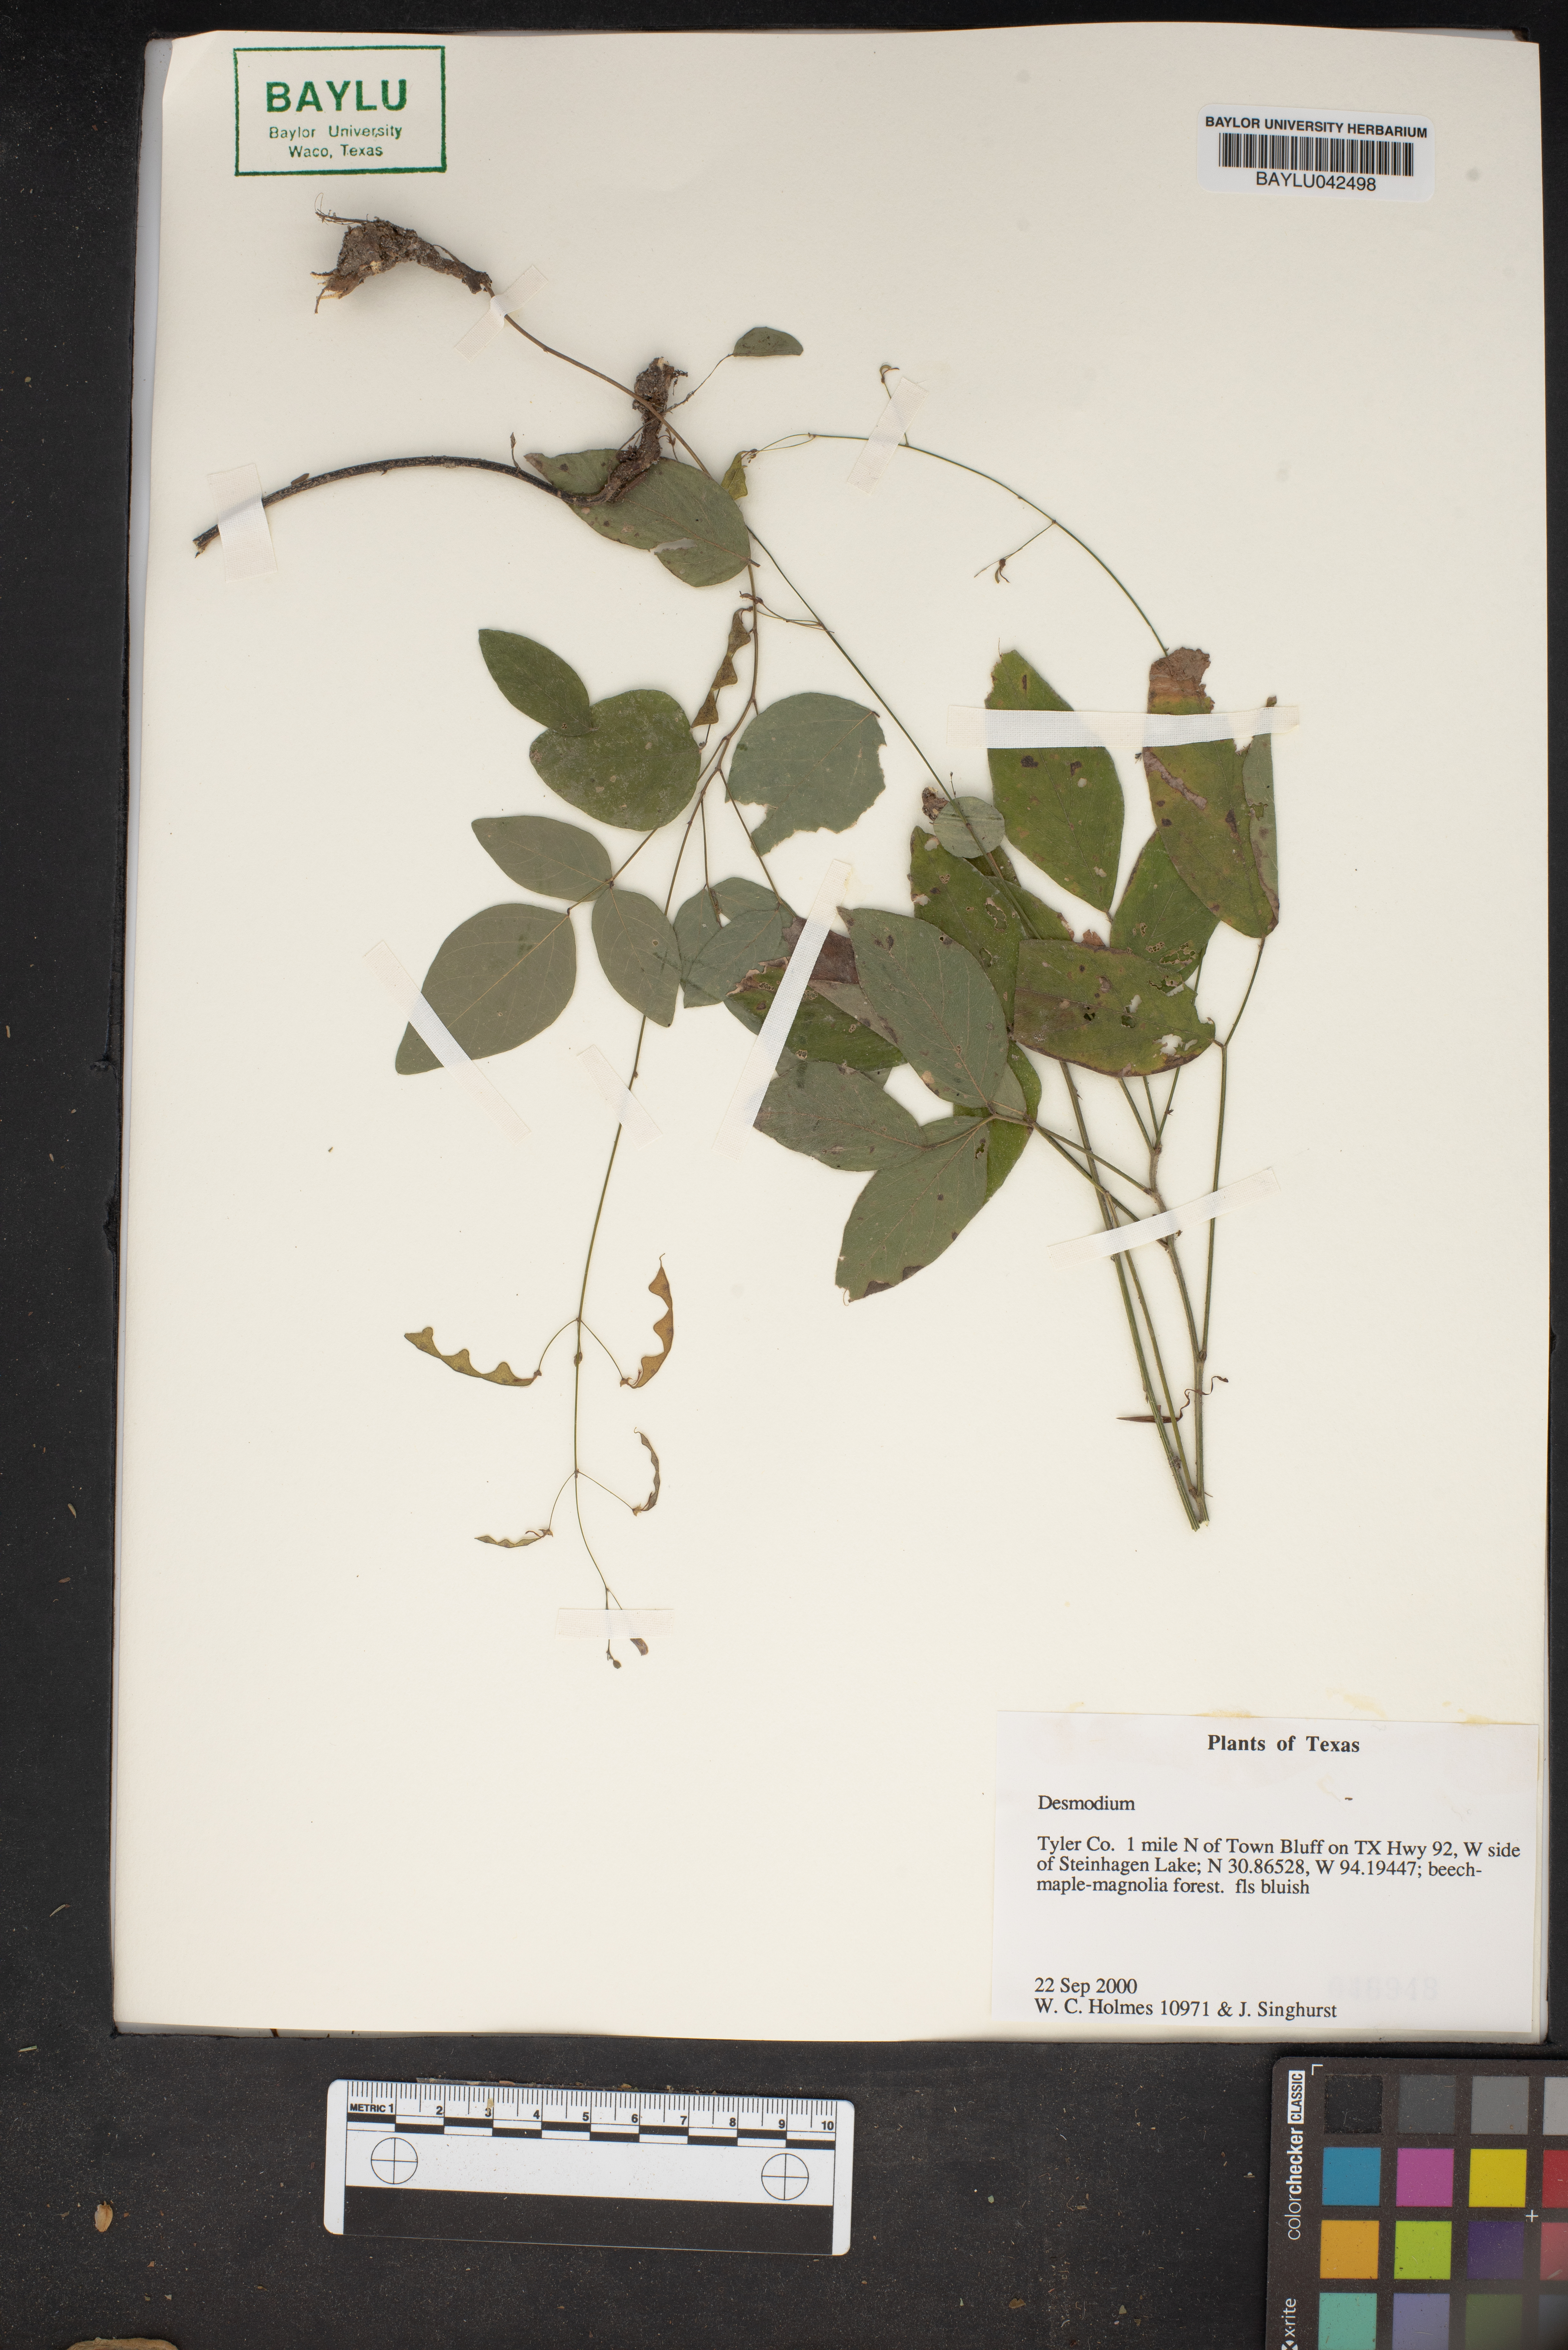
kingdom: Plantae
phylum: Tracheophyta
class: Magnoliopsida
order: Fabales
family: Fabaceae
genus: Desmodium
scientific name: Desmodium
